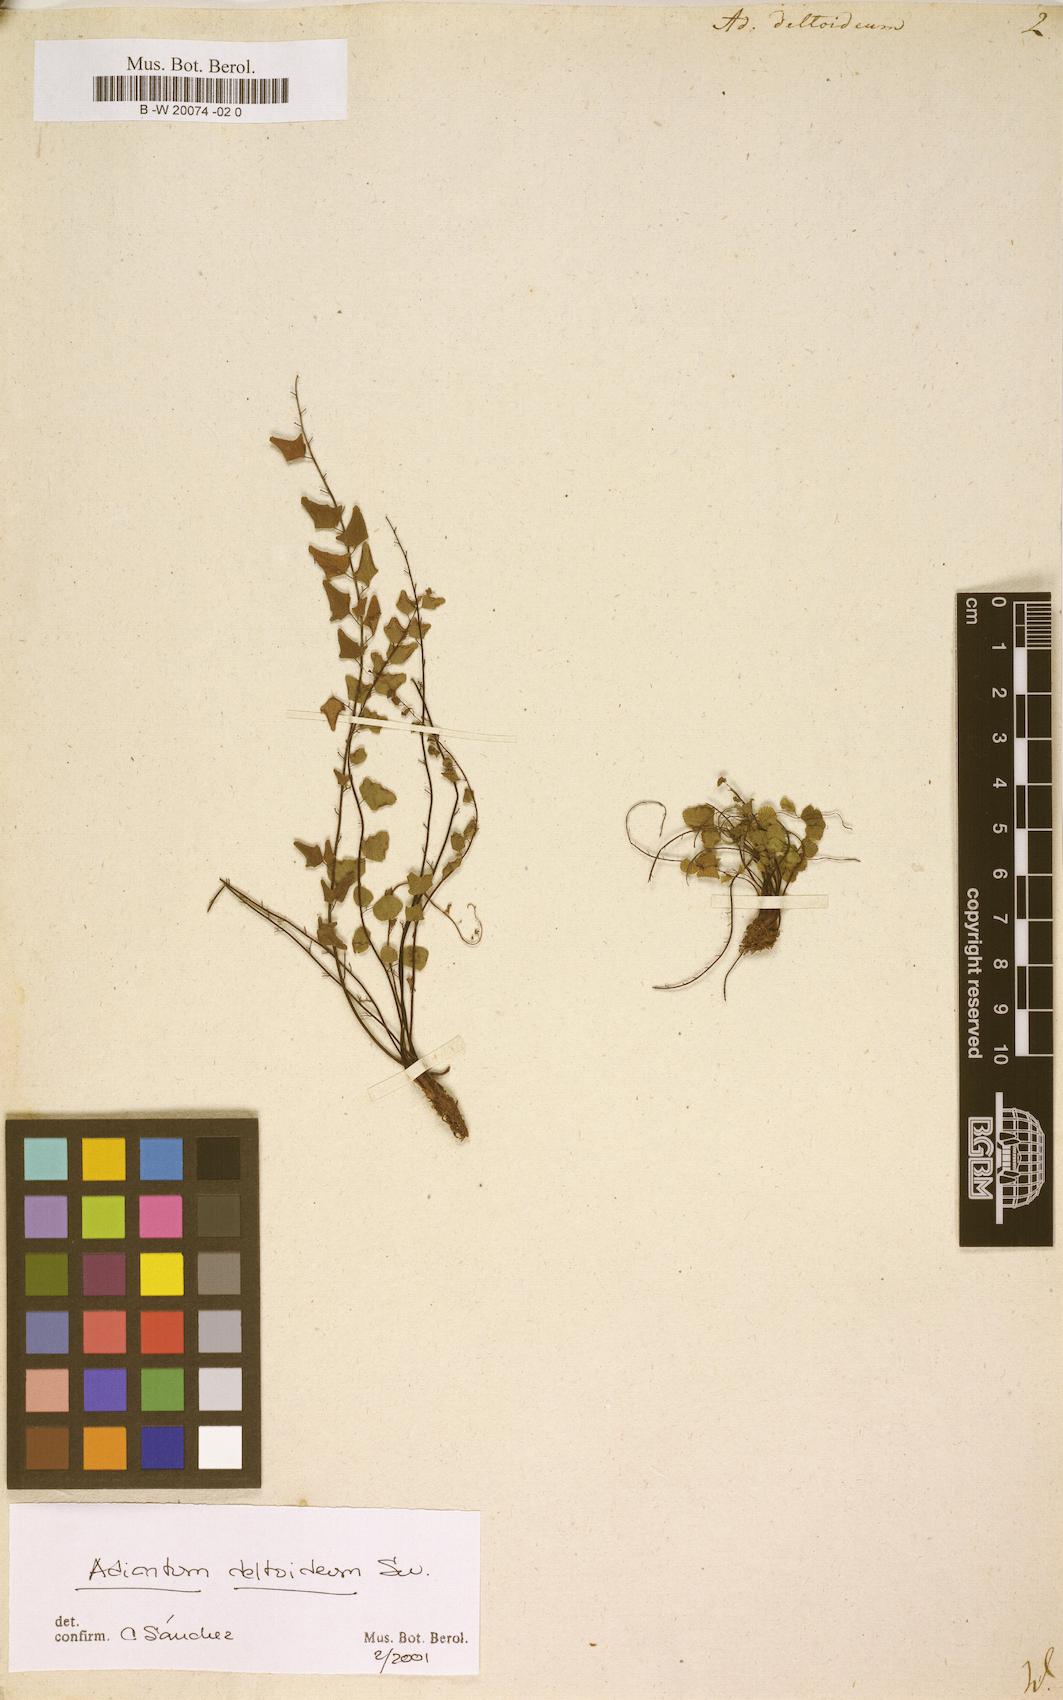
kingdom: Plantae
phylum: Tracheophyta
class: Polypodiopsida
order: Polypodiales
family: Pteridaceae
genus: Adiantum
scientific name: Adiantum deltoideum
